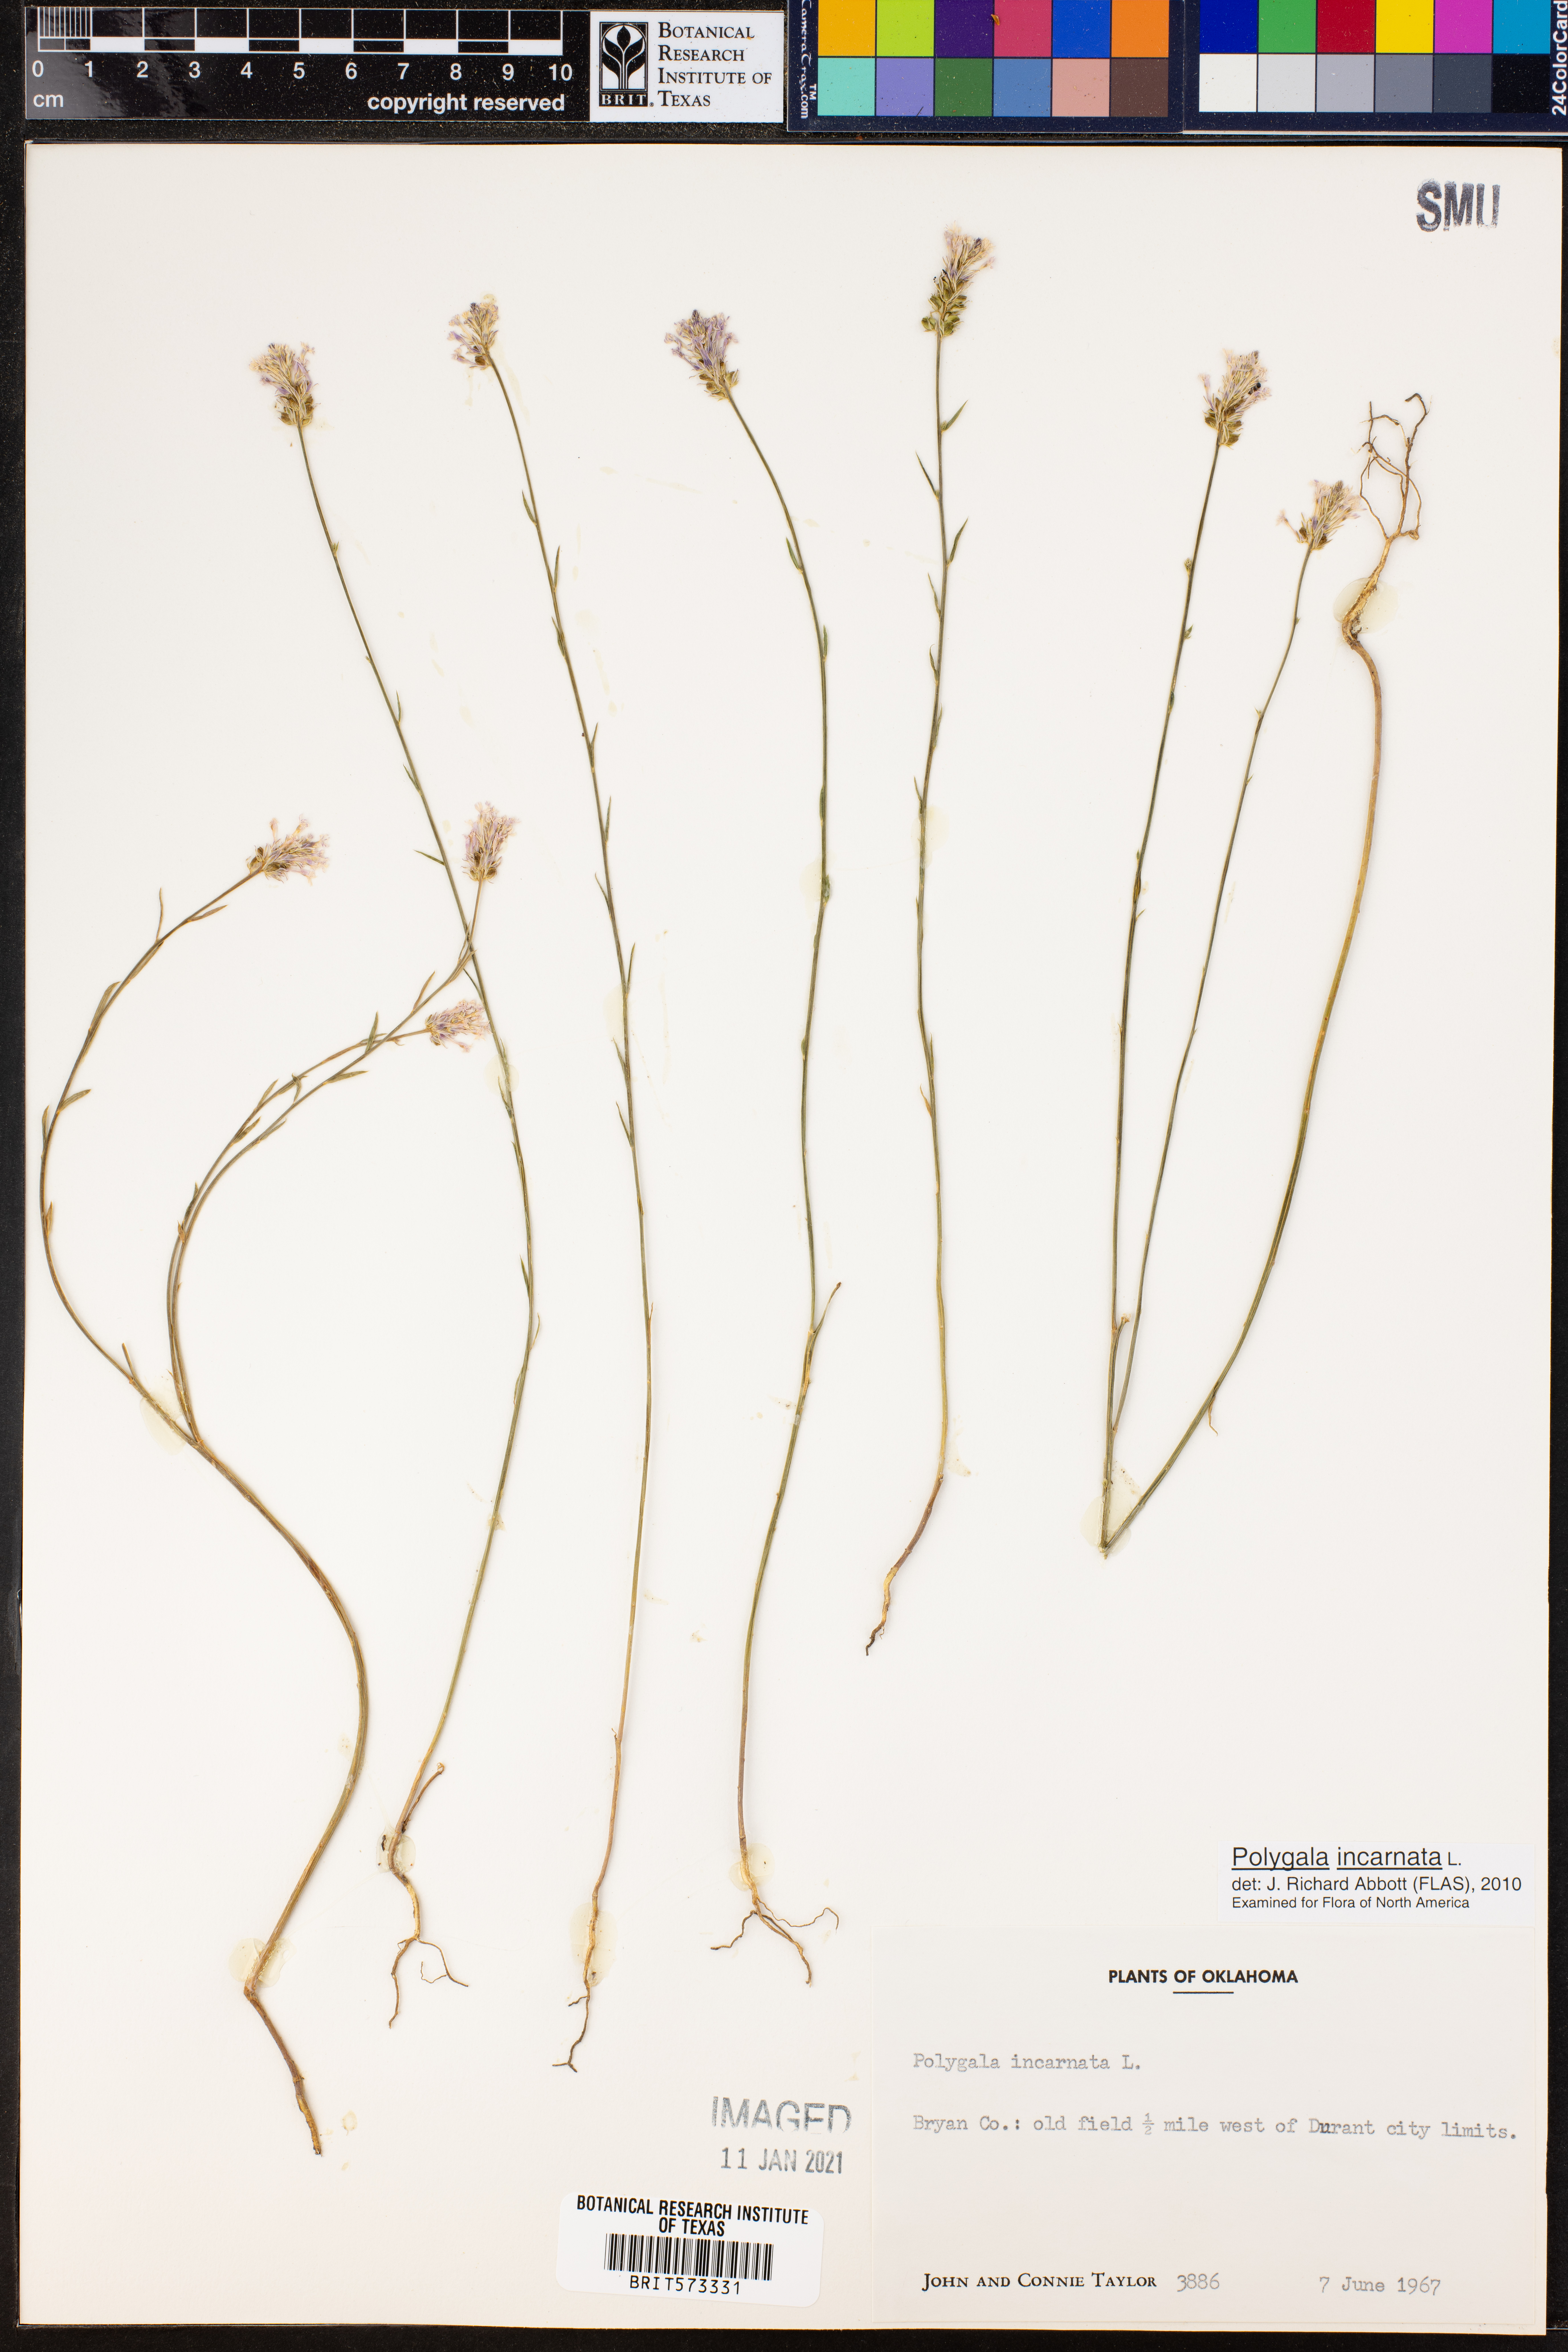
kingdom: Plantae
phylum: Tracheophyta
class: Magnoliopsida
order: Fabales
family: Polygalaceae
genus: Polygala
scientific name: Polygala incarnata
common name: Pink milkwort
